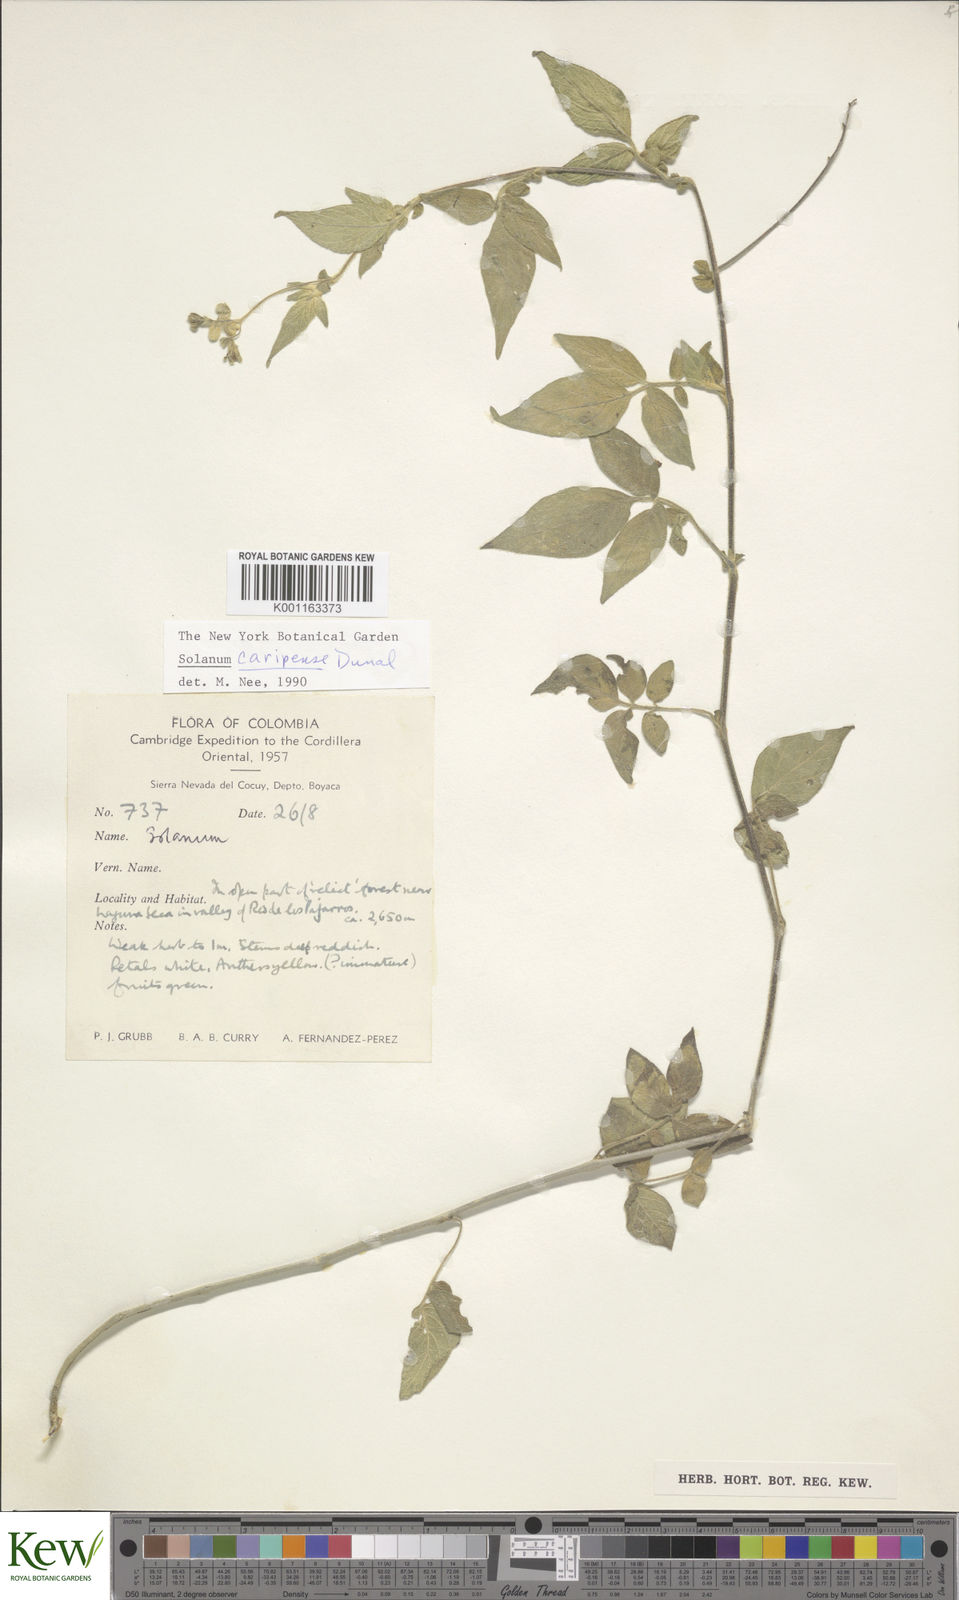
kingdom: Plantae
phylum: Tracheophyta
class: Magnoliopsida
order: Solanales
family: Solanaceae
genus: Solanum
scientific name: Solanum caripense
